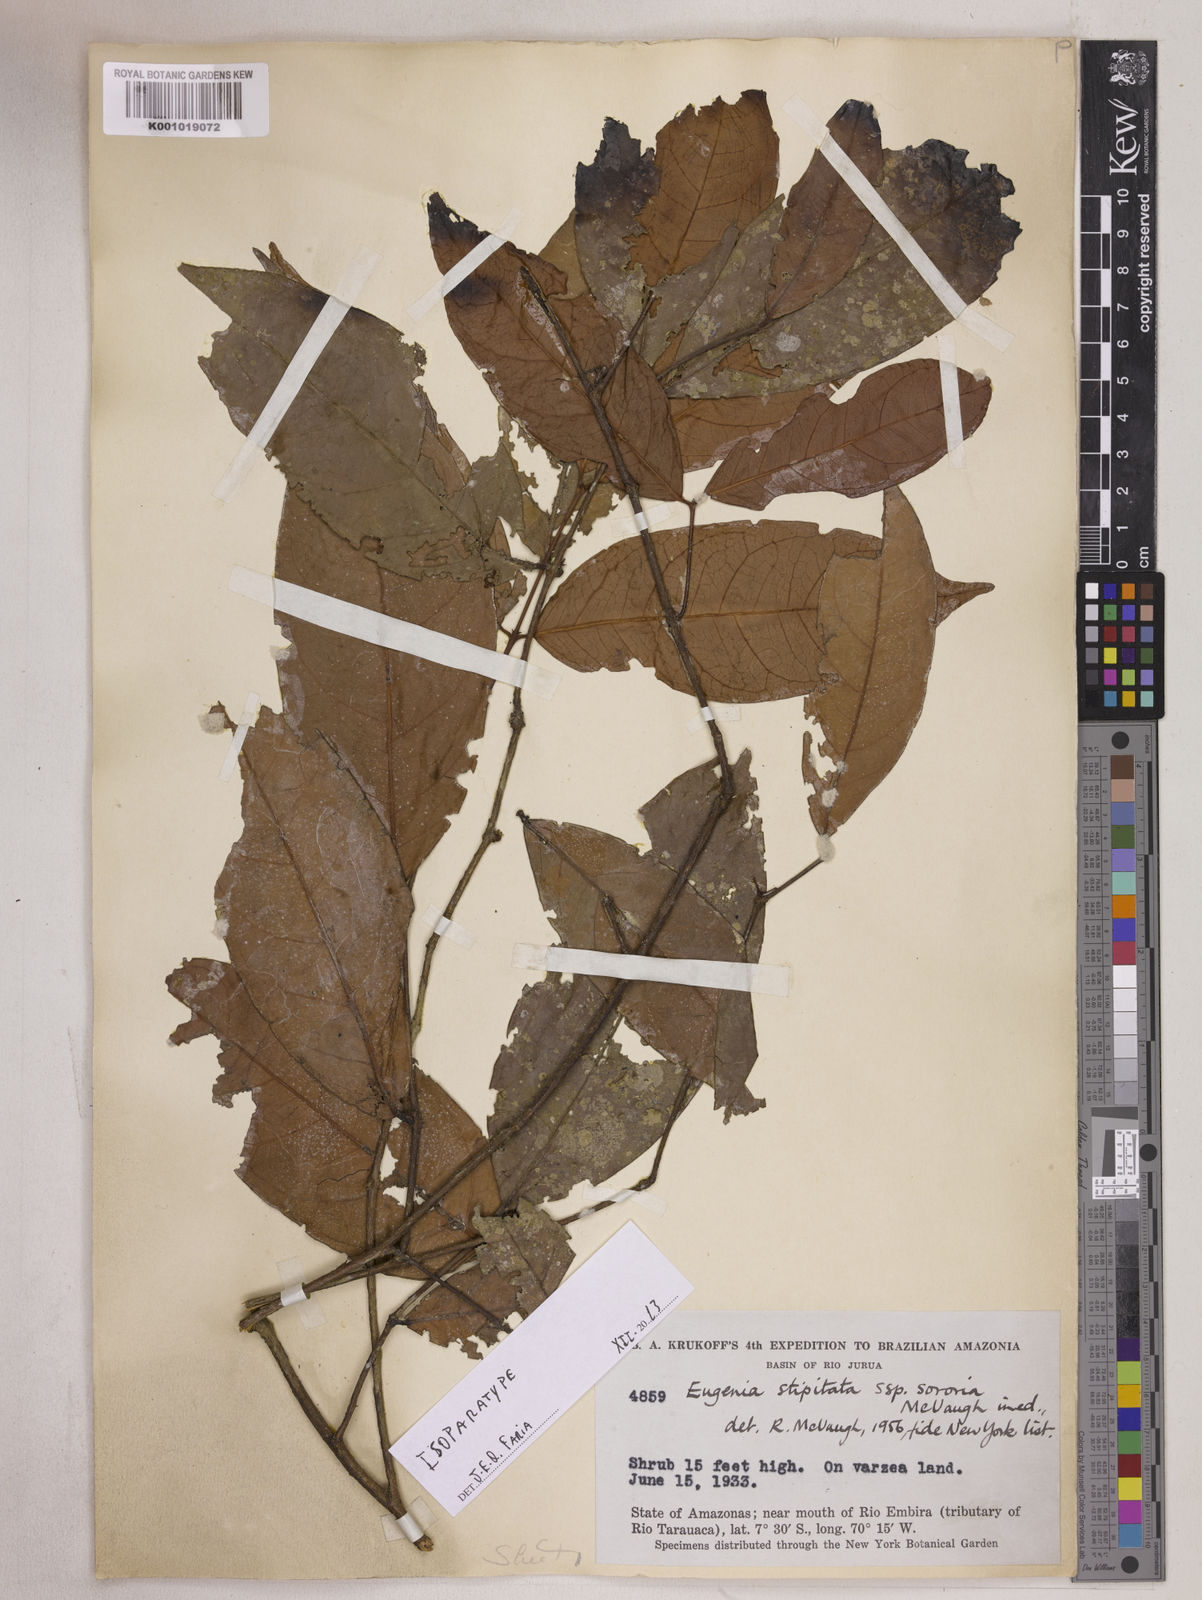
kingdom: Plantae
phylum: Tracheophyta
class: Magnoliopsida
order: Myrtales
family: Myrtaceae
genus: Eugenia
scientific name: Eugenia stipitata
